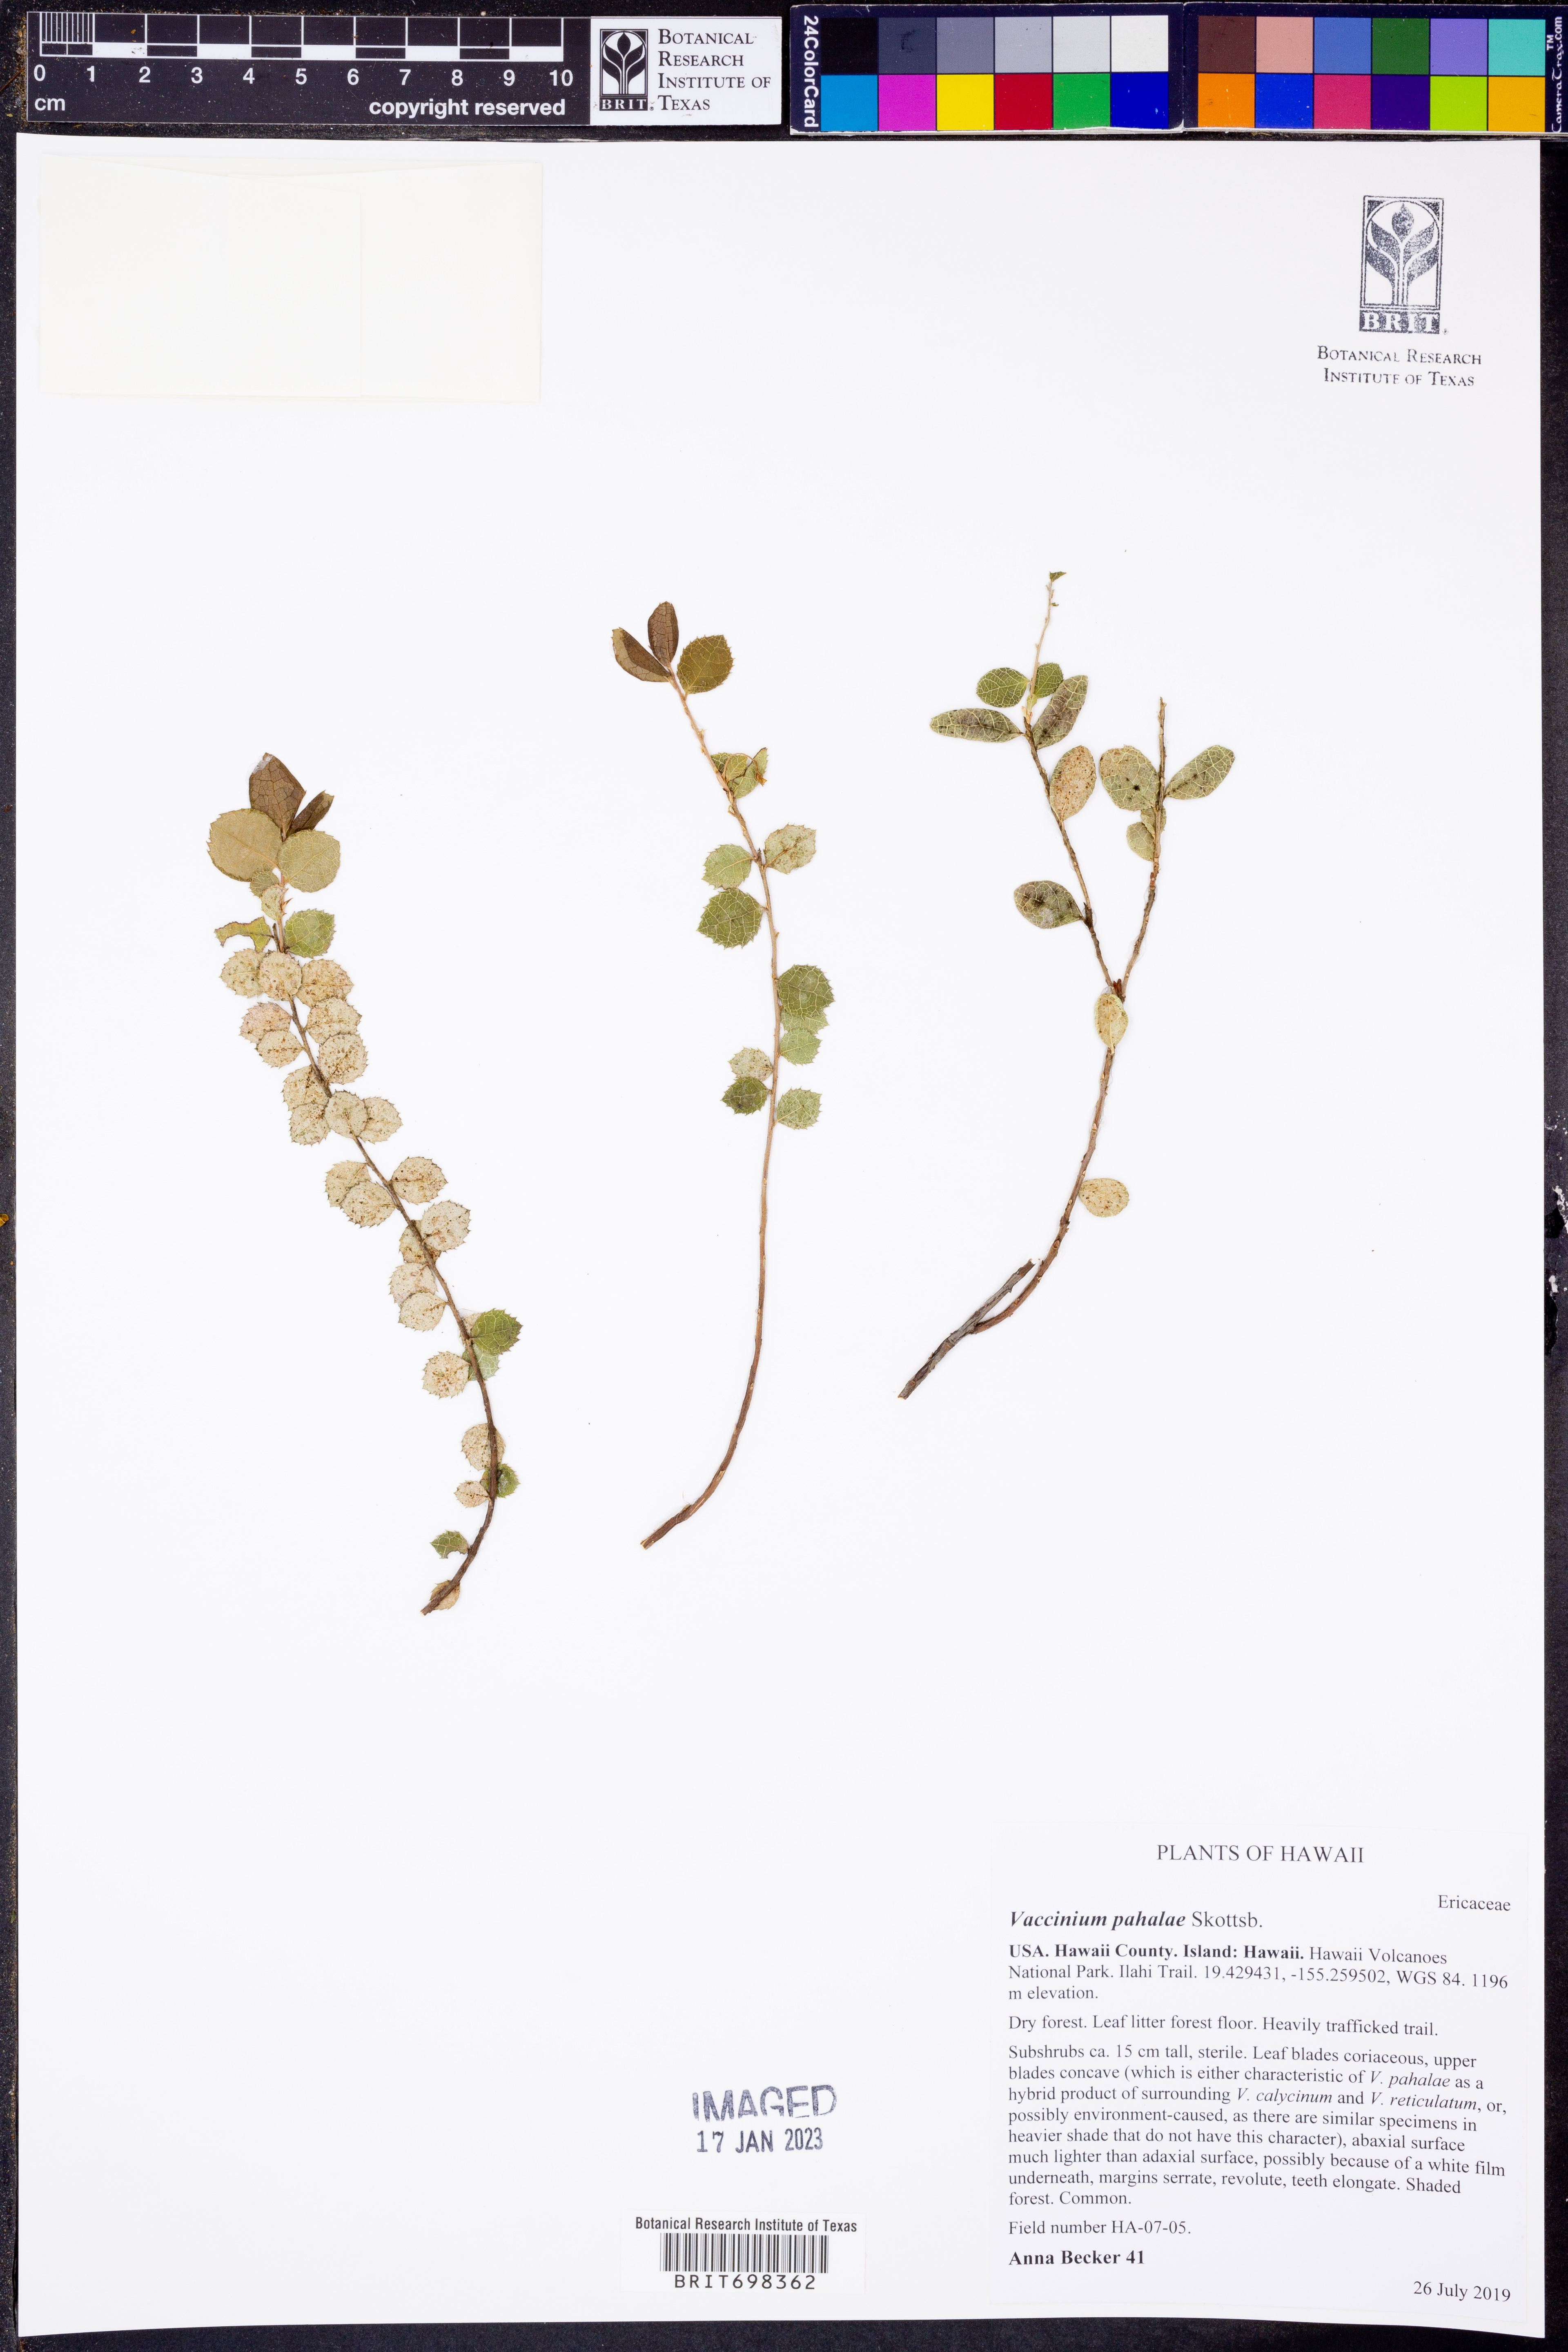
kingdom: Plantae
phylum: Tracheophyta
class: Magnoliopsida
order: Ericales
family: Ericaceae
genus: Vaccinium
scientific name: Vaccinium reticulatum
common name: Ohelo
